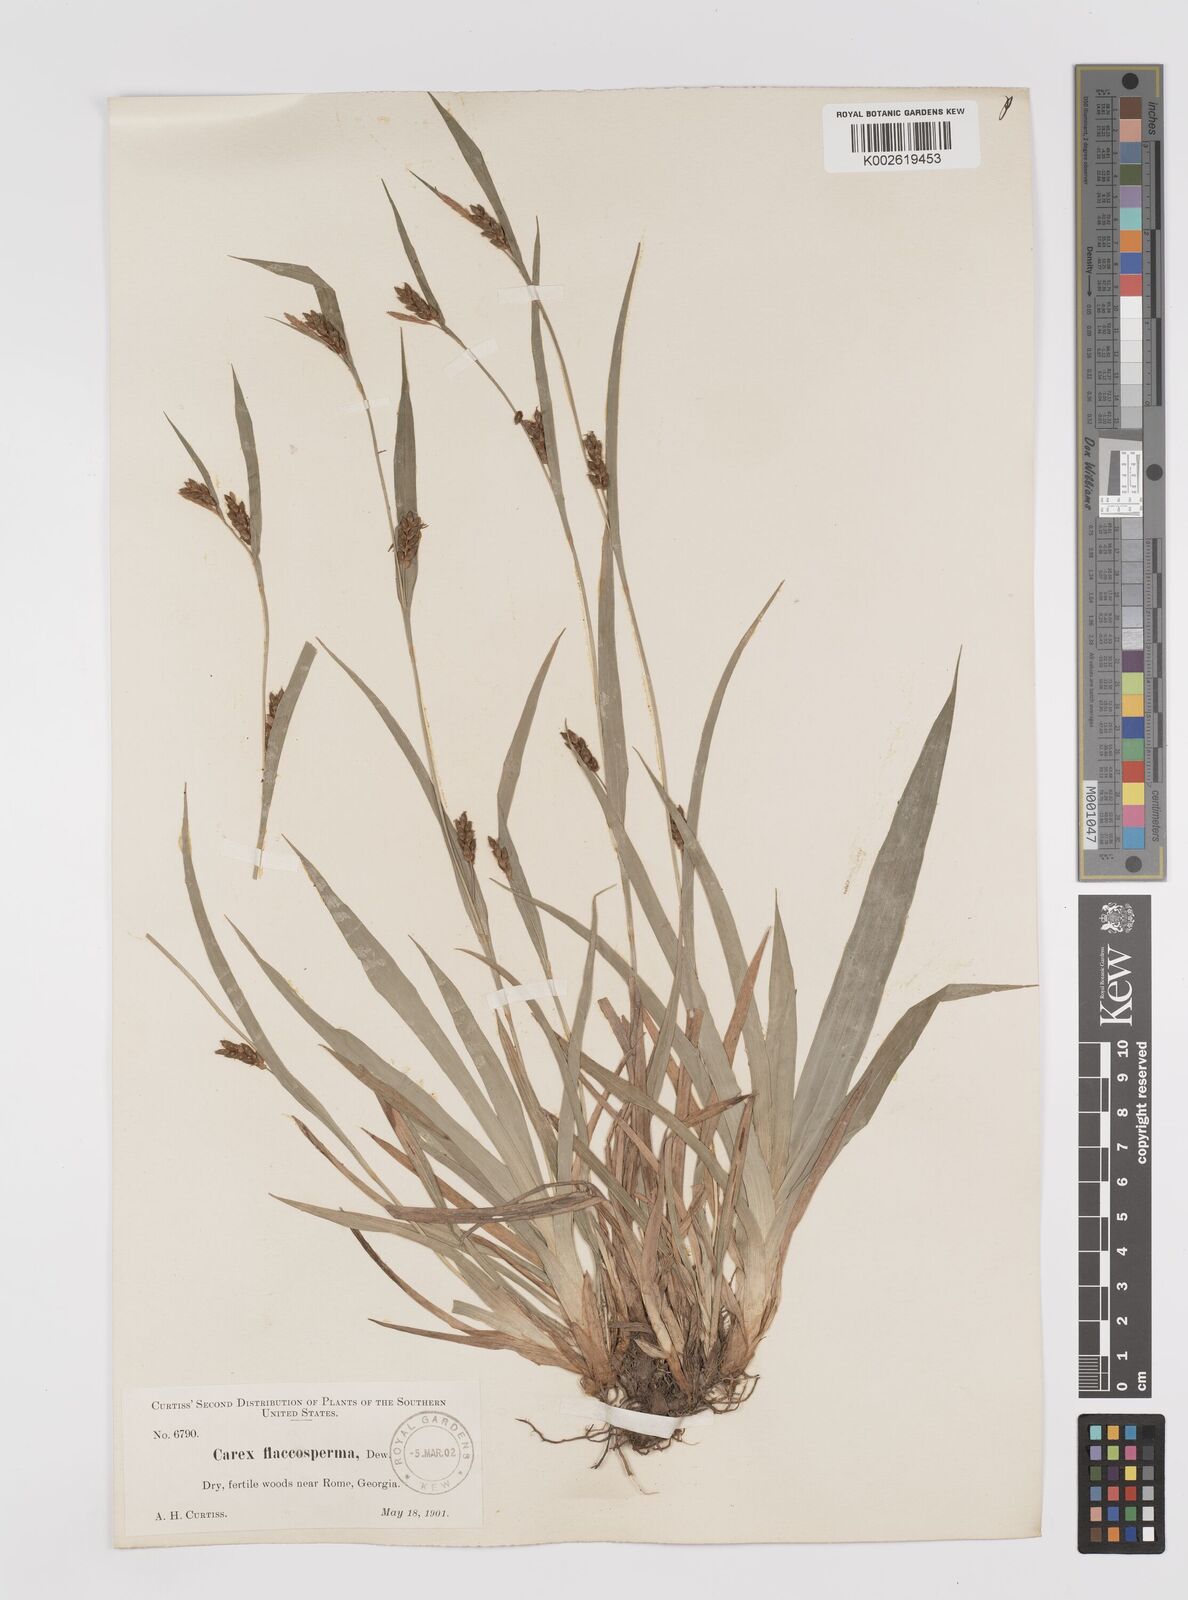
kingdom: Plantae
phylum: Tracheophyta
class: Liliopsida
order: Poales
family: Cyperaceae
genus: Carex
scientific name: Carex flaccosperma
